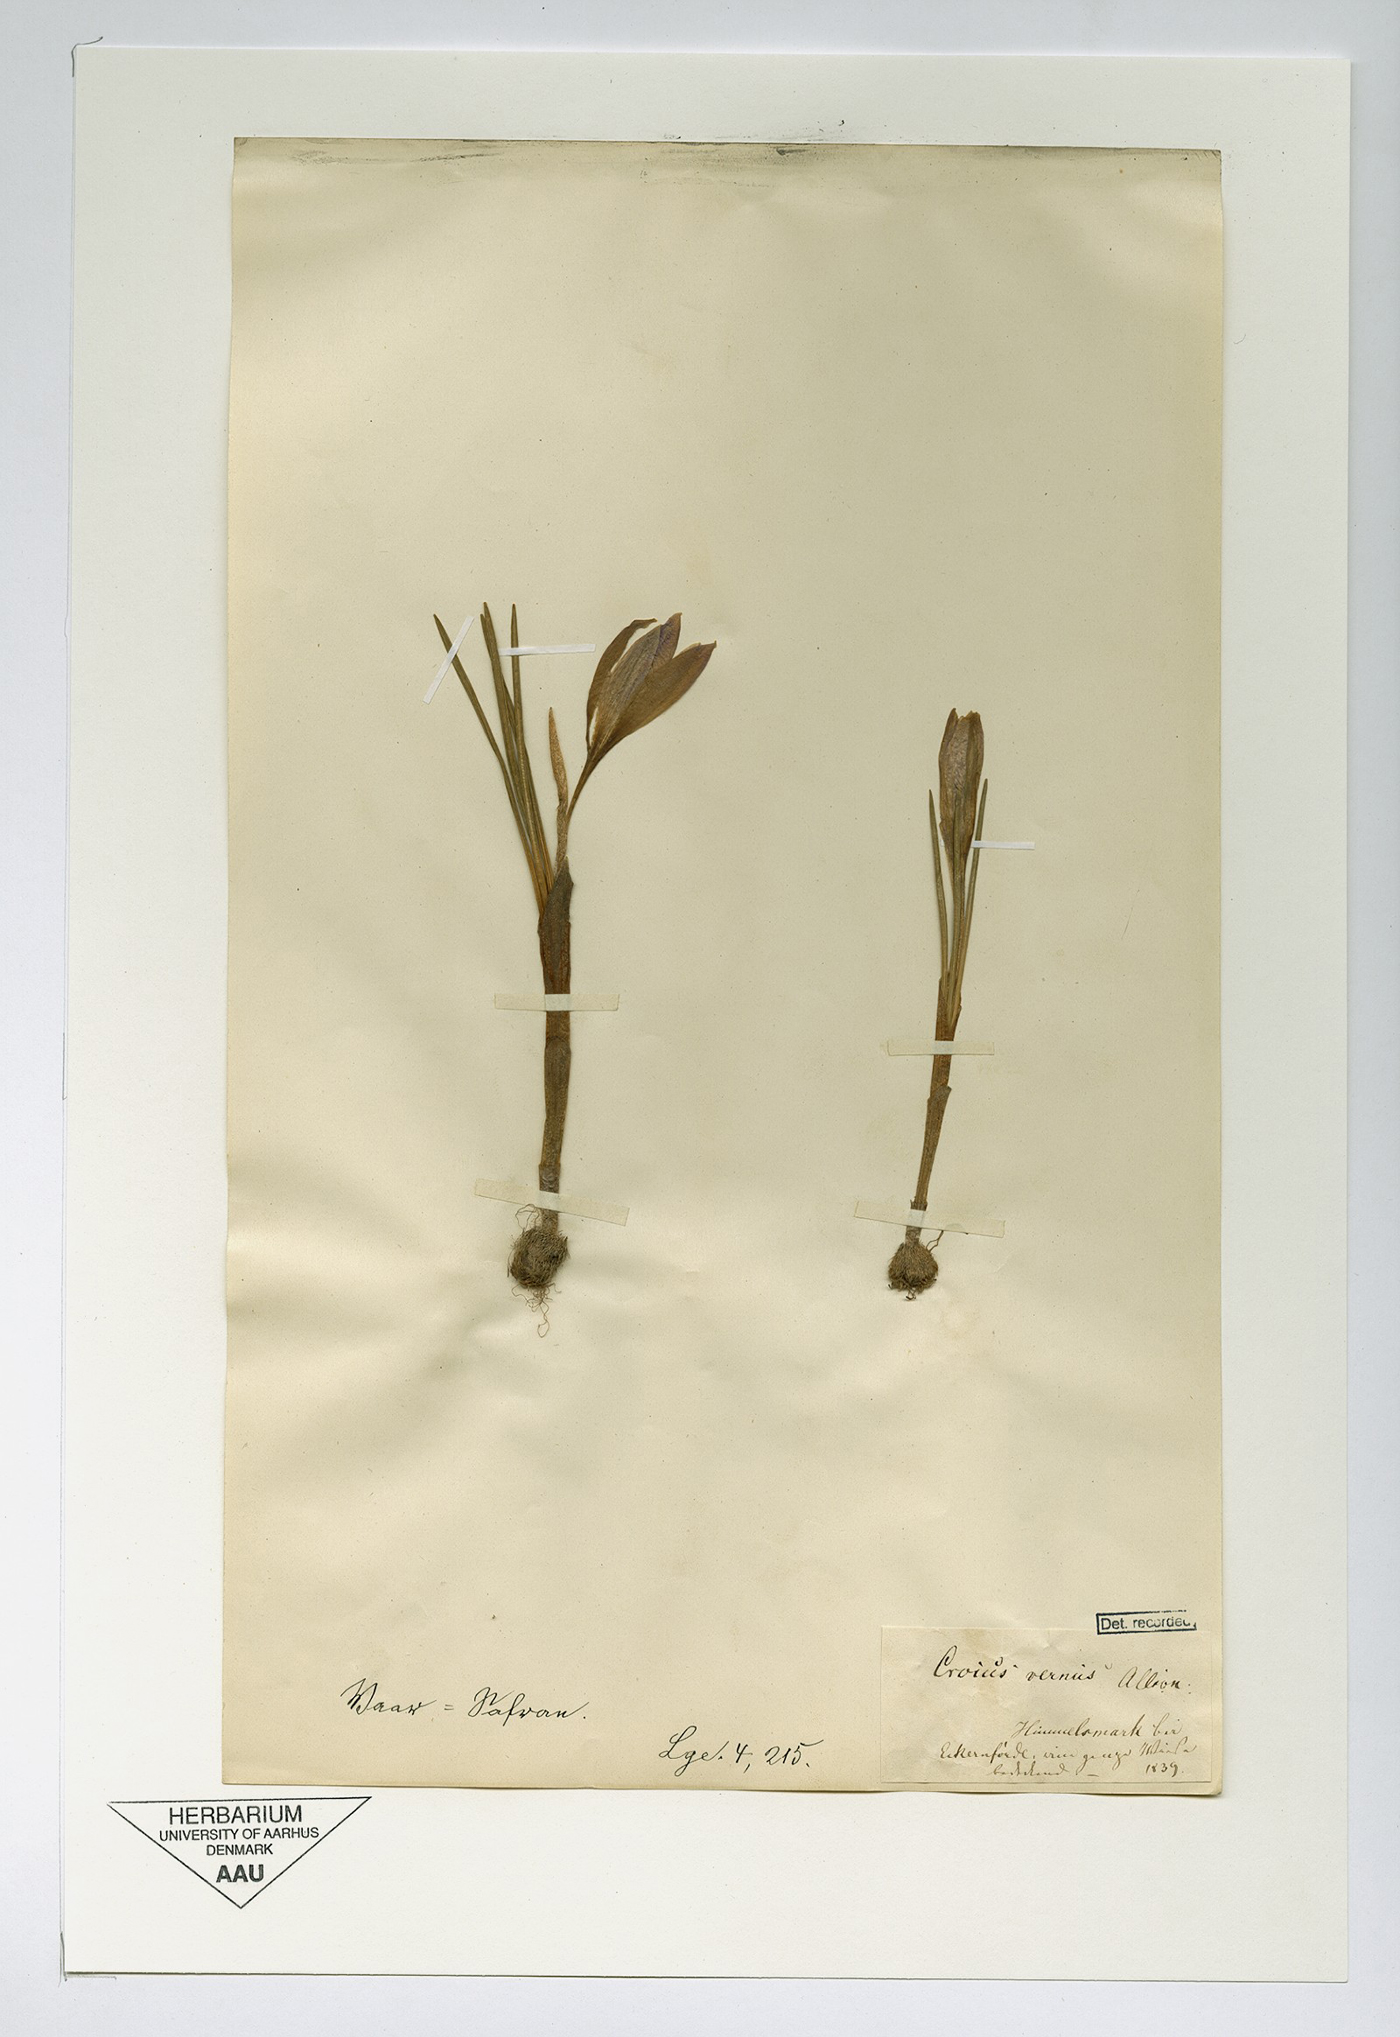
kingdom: Plantae
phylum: Tracheophyta
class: Liliopsida
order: Asparagales
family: Iridaceae
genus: Crocus
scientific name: Crocus neapolitanus
